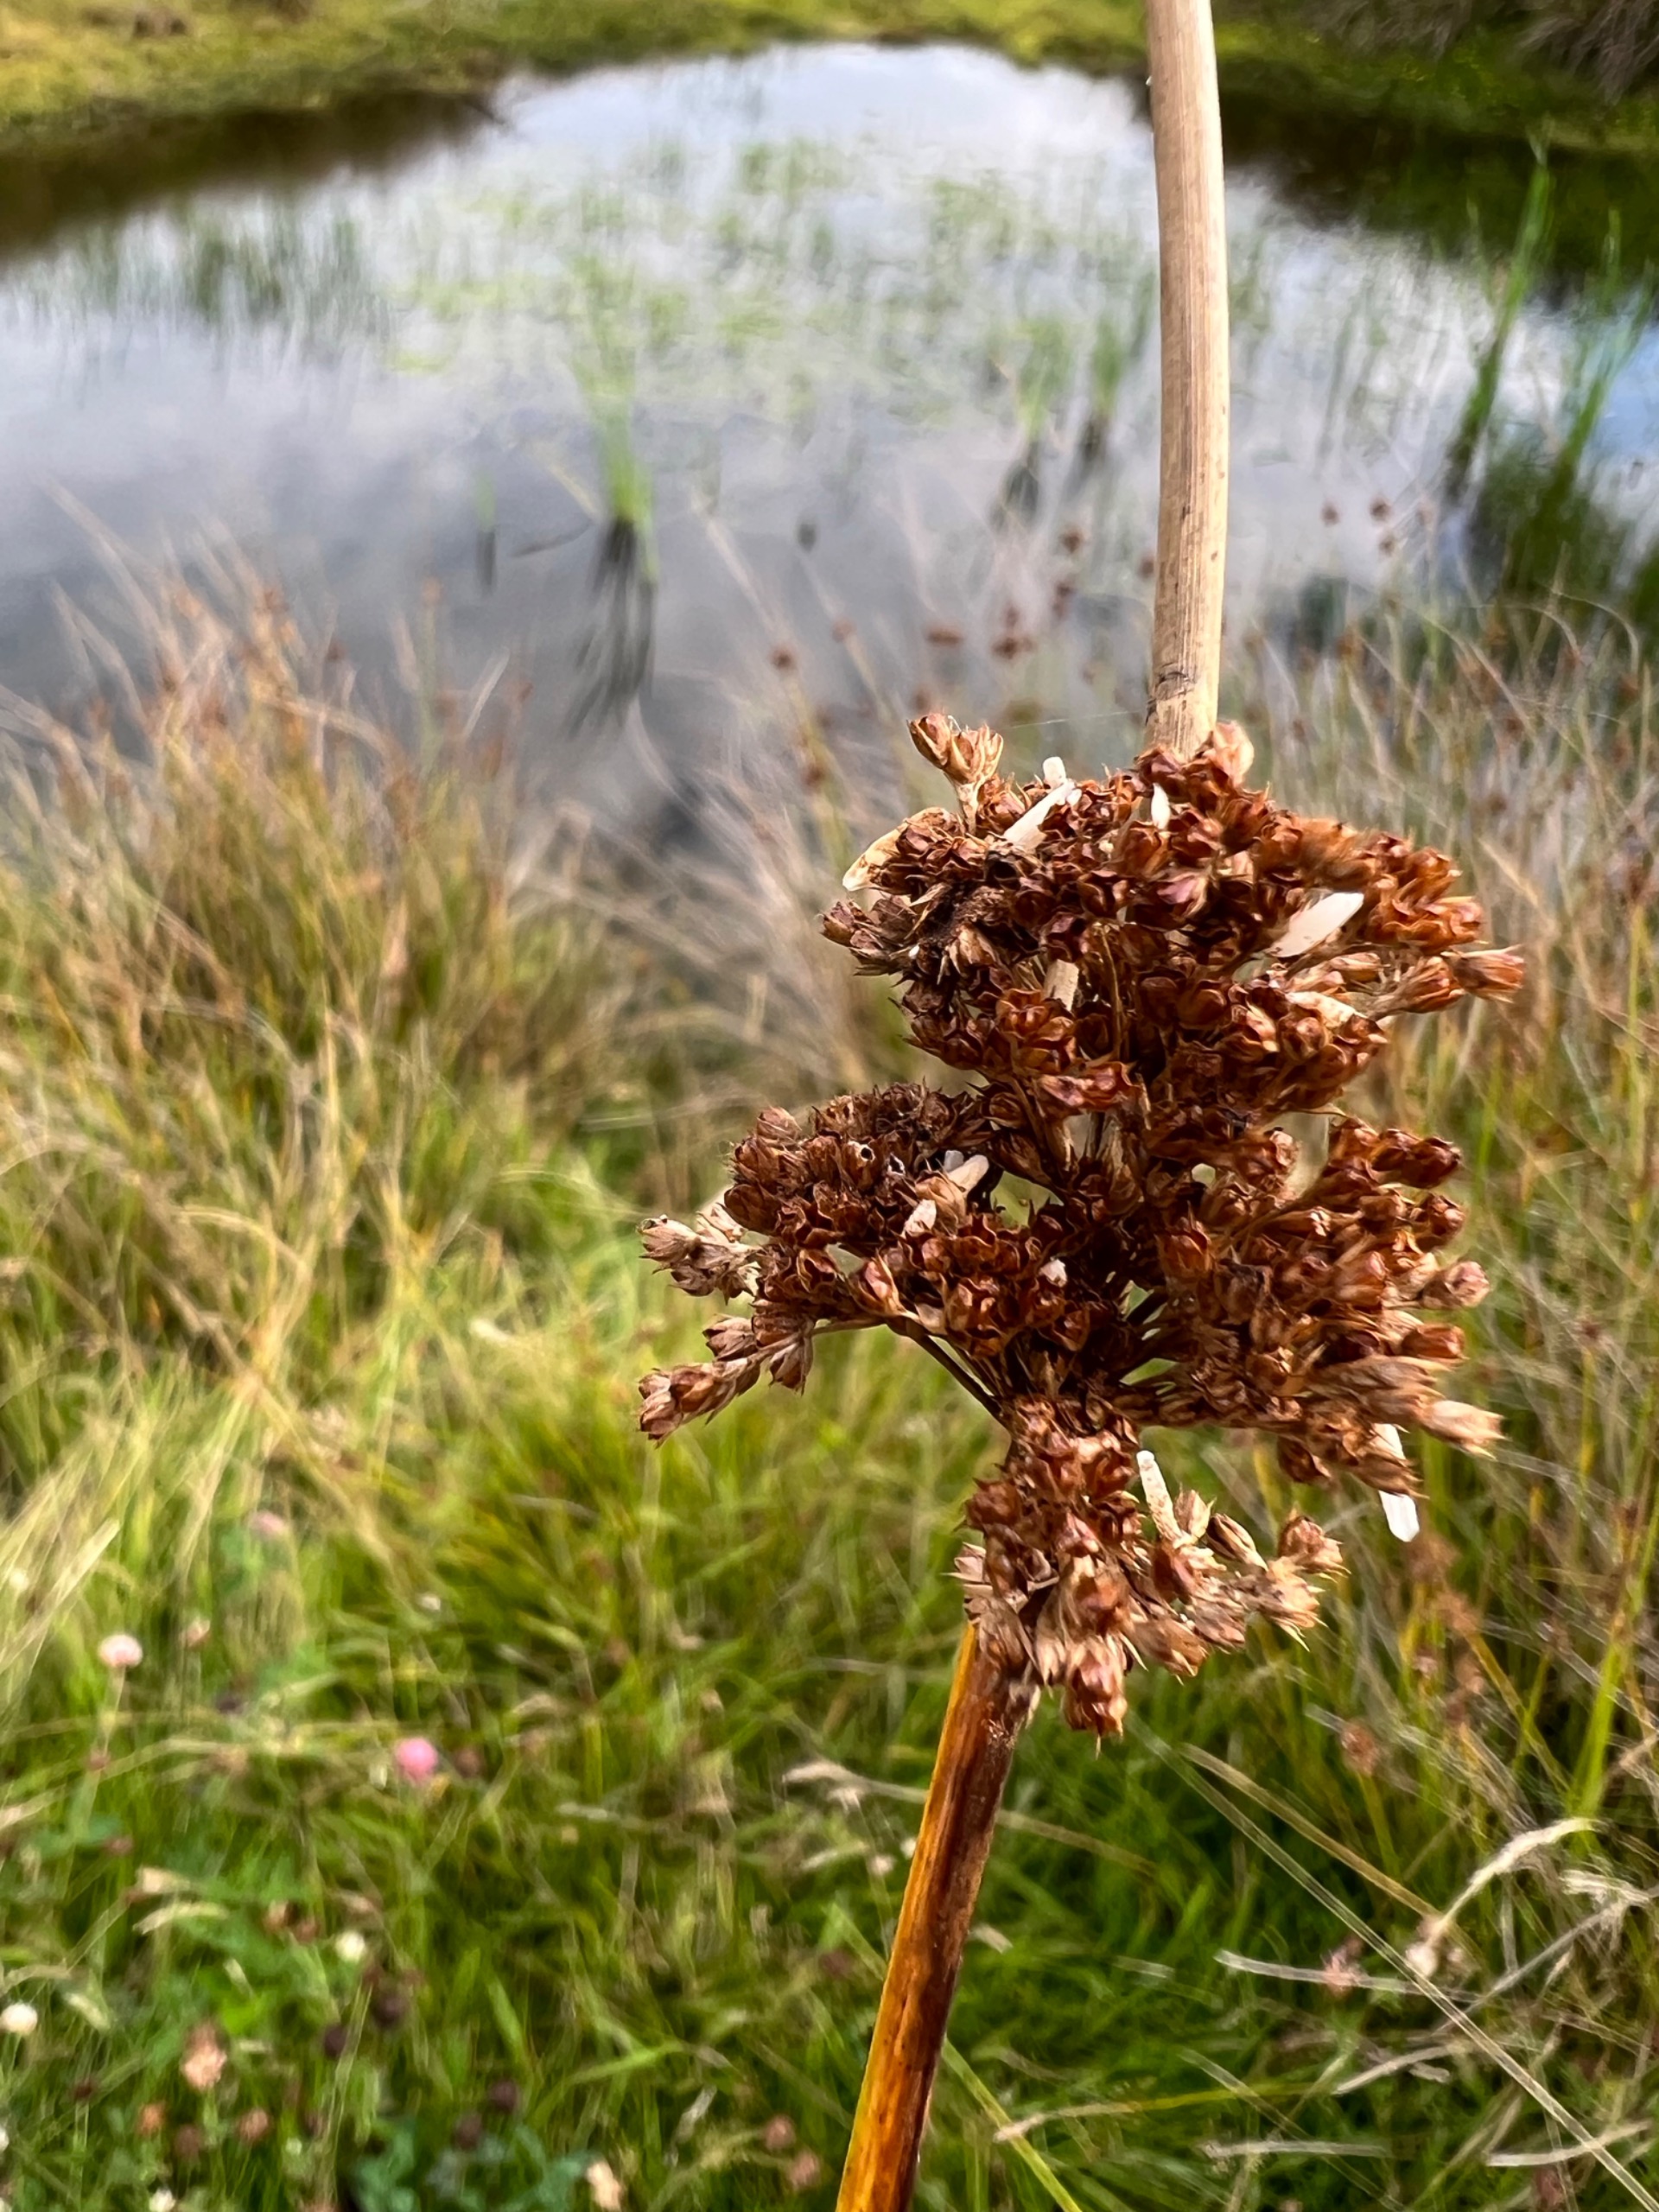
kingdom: Plantae
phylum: Tracheophyta
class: Liliopsida
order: Poales
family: Juncaceae
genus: Juncus
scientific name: Juncus conglomeratus
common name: Knop-siv
